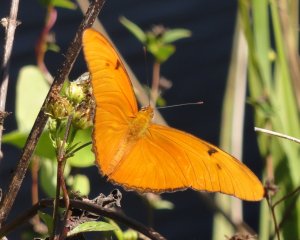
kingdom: Animalia
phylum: Arthropoda
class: Insecta
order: Lepidoptera
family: Nymphalidae
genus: Dryas
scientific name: Dryas iulia
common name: Julia
